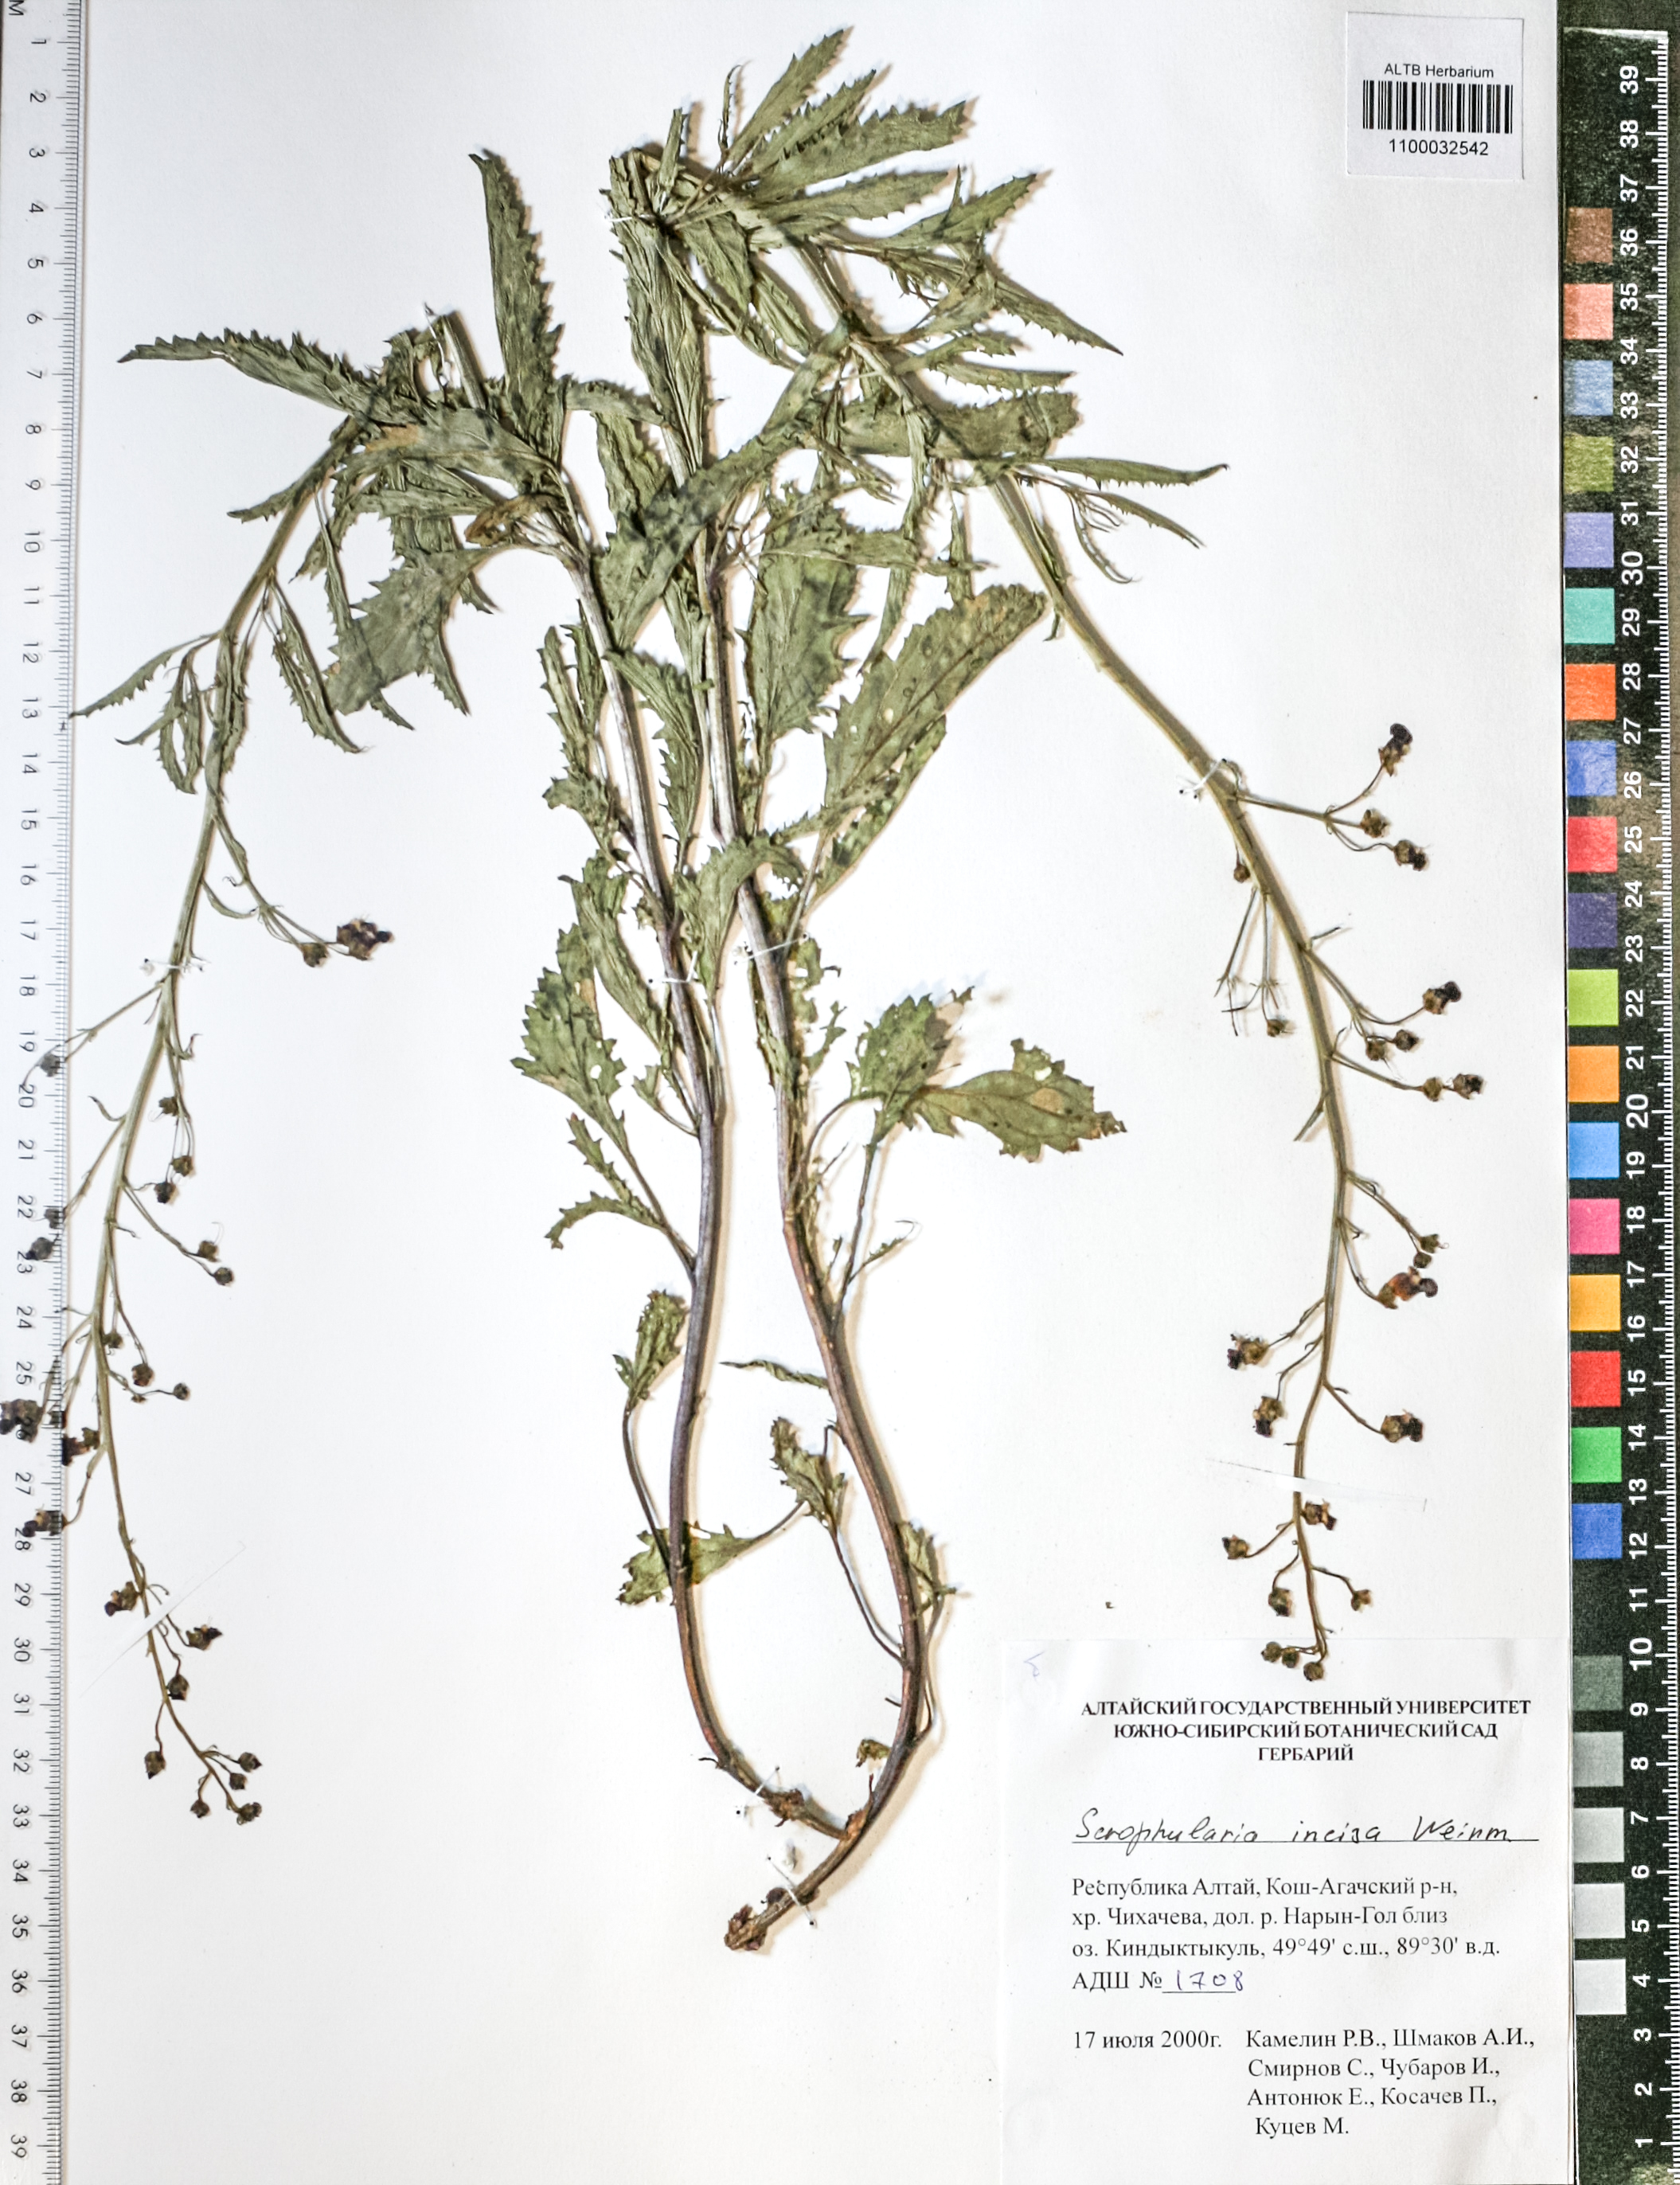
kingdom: Plantae
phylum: Tracheophyta
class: Magnoliopsida
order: Lamiales
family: Scrophulariaceae
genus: Scrophularia
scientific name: Scrophularia incisa
